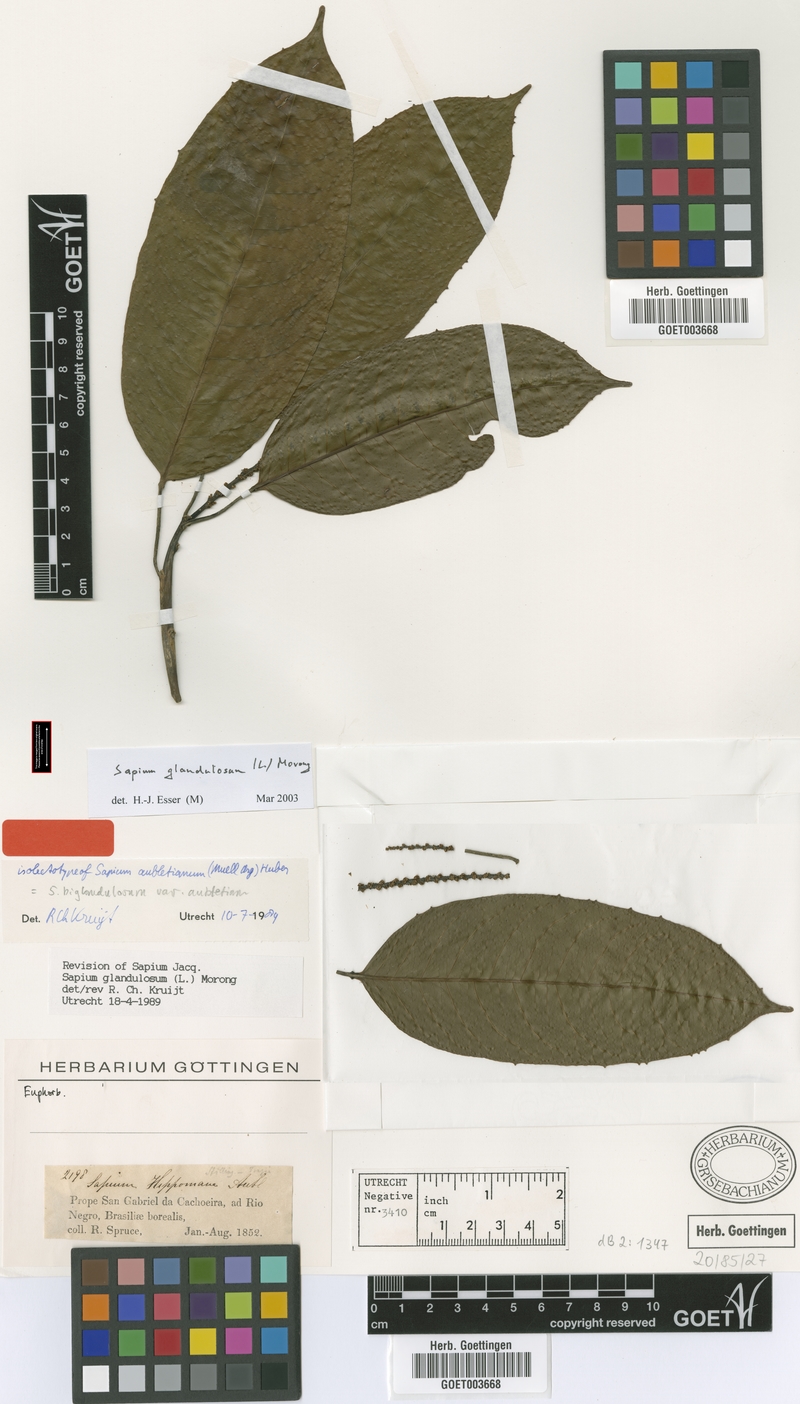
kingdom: Plantae
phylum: Tracheophyta
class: Magnoliopsida
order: Malpighiales
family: Euphorbiaceae
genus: Sapium
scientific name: Sapium glandulosum
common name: Milktree
